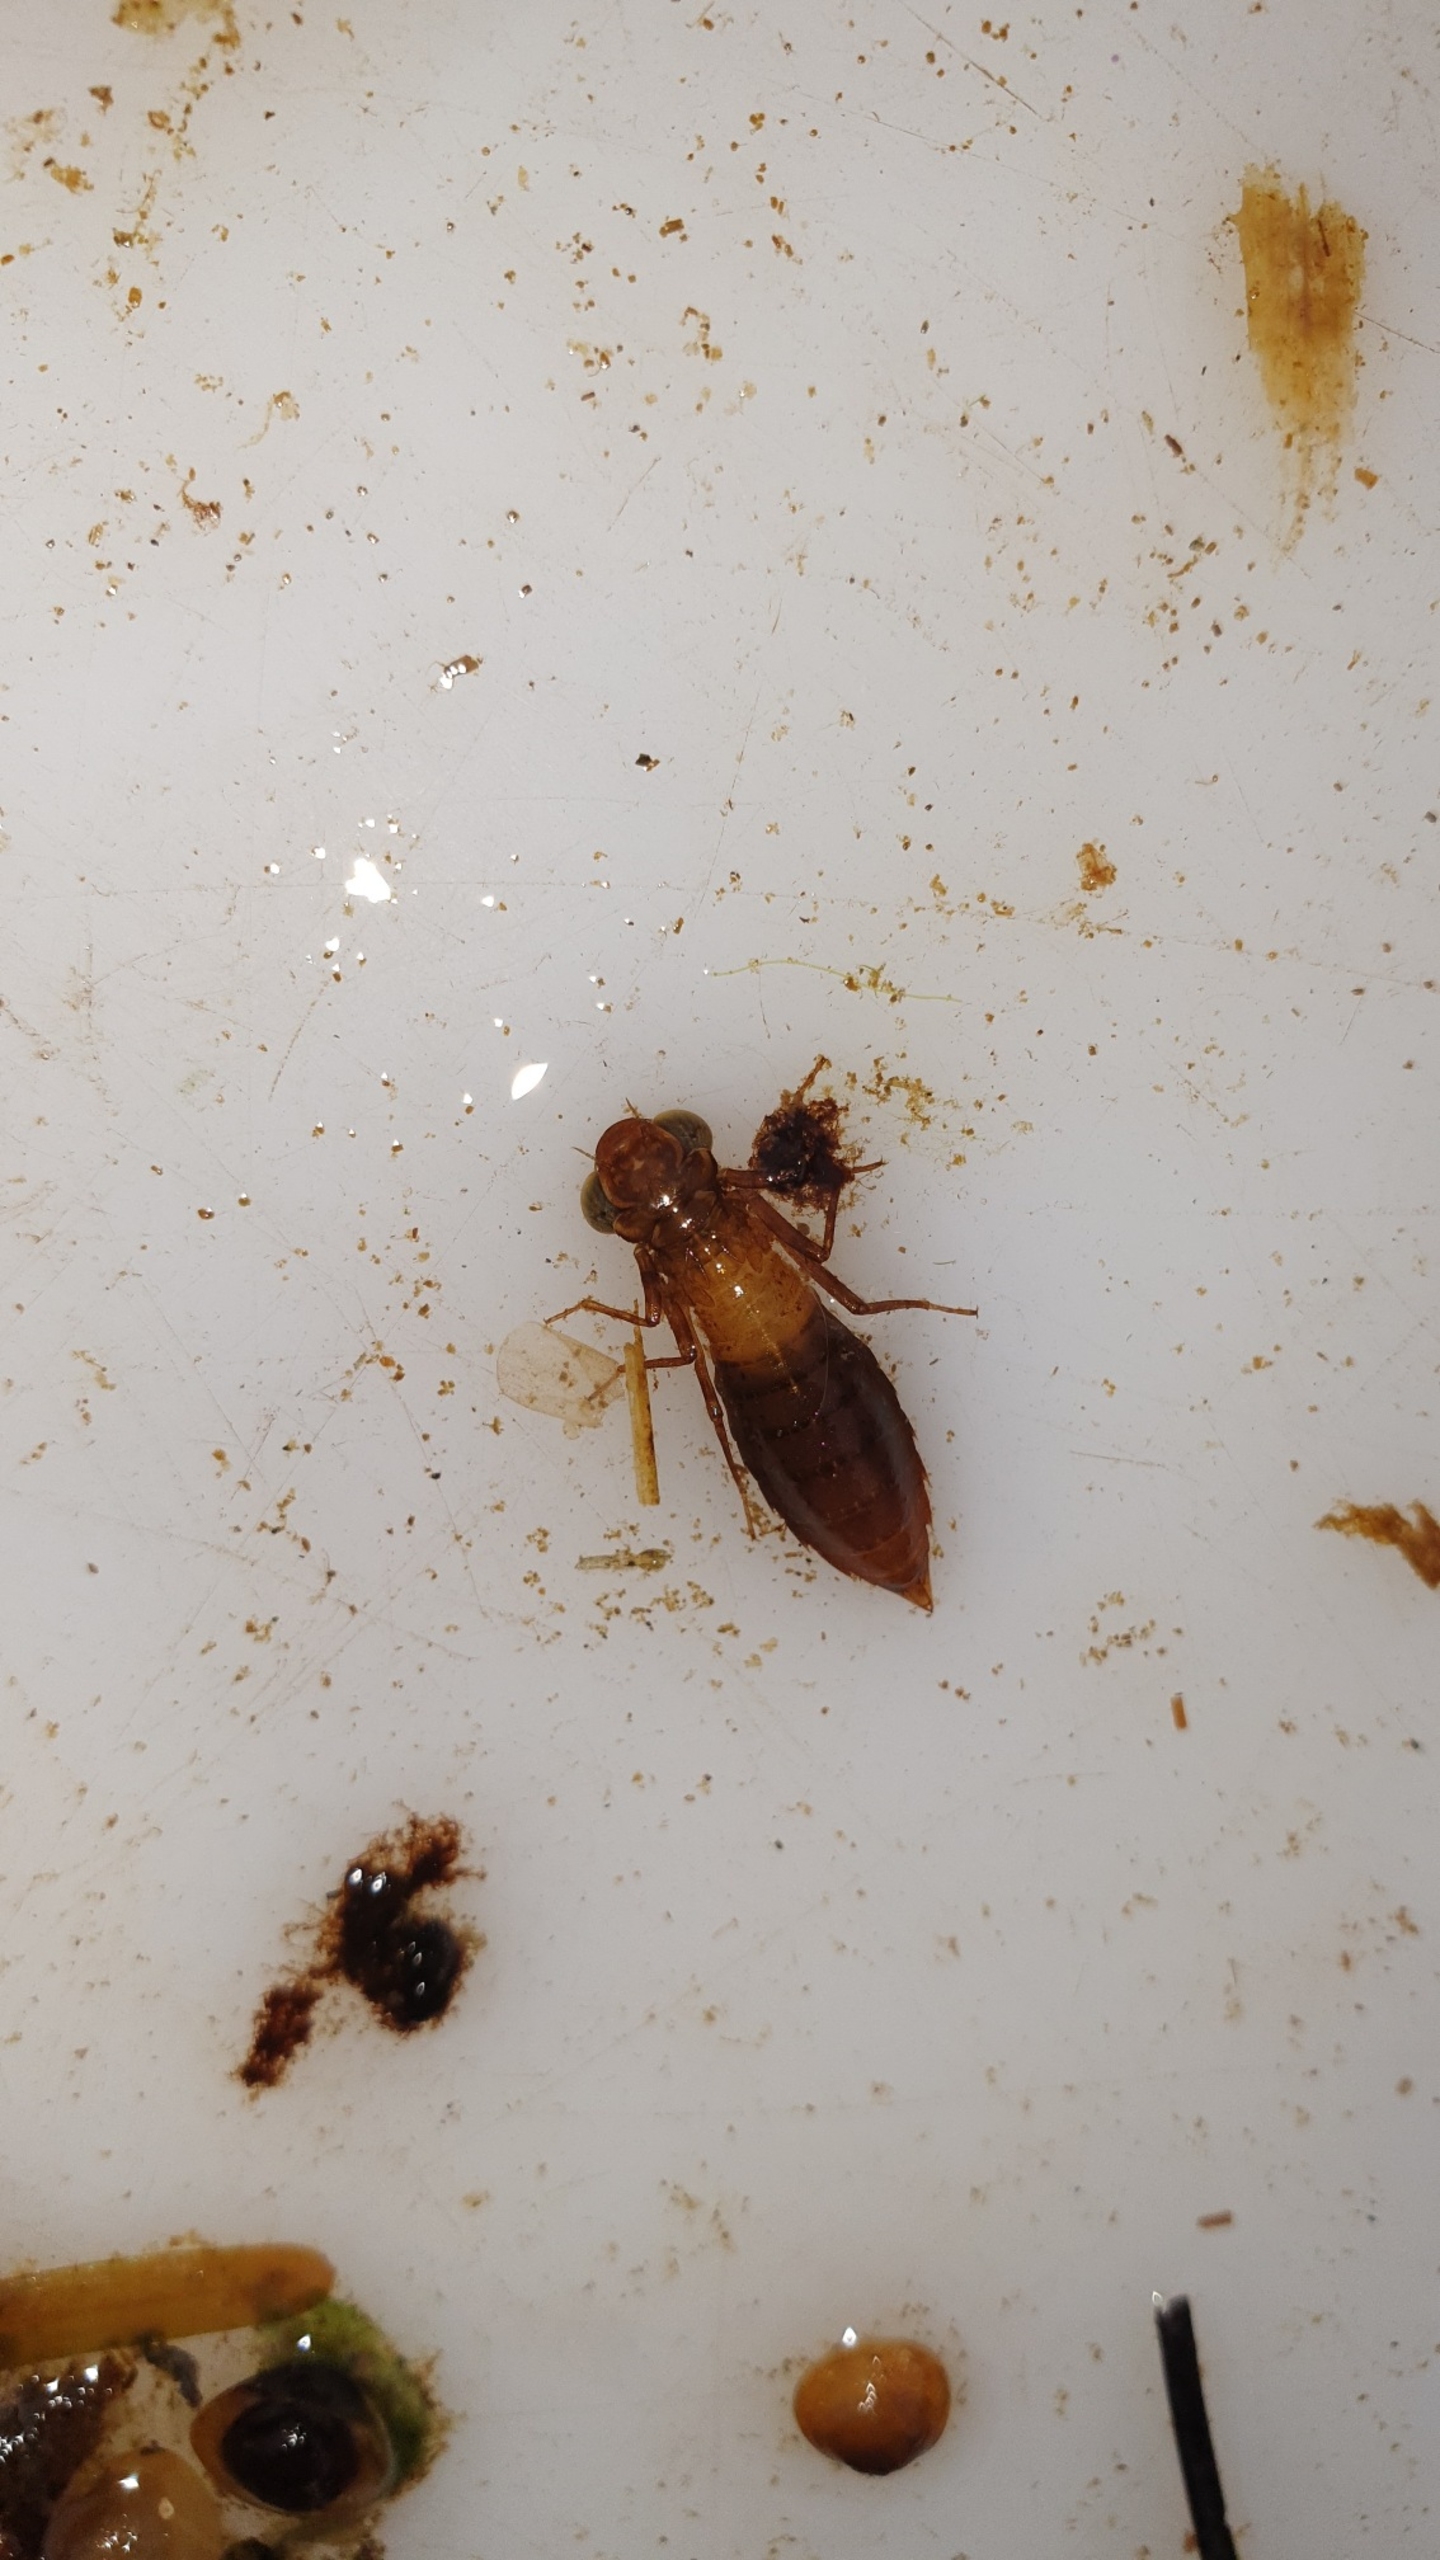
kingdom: Animalia
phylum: Arthropoda
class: Insecta
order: Odonata
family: Aeshnidae
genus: Aeshna
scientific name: Aeshna isoceles
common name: Kileplet-mosaikguldsmed
